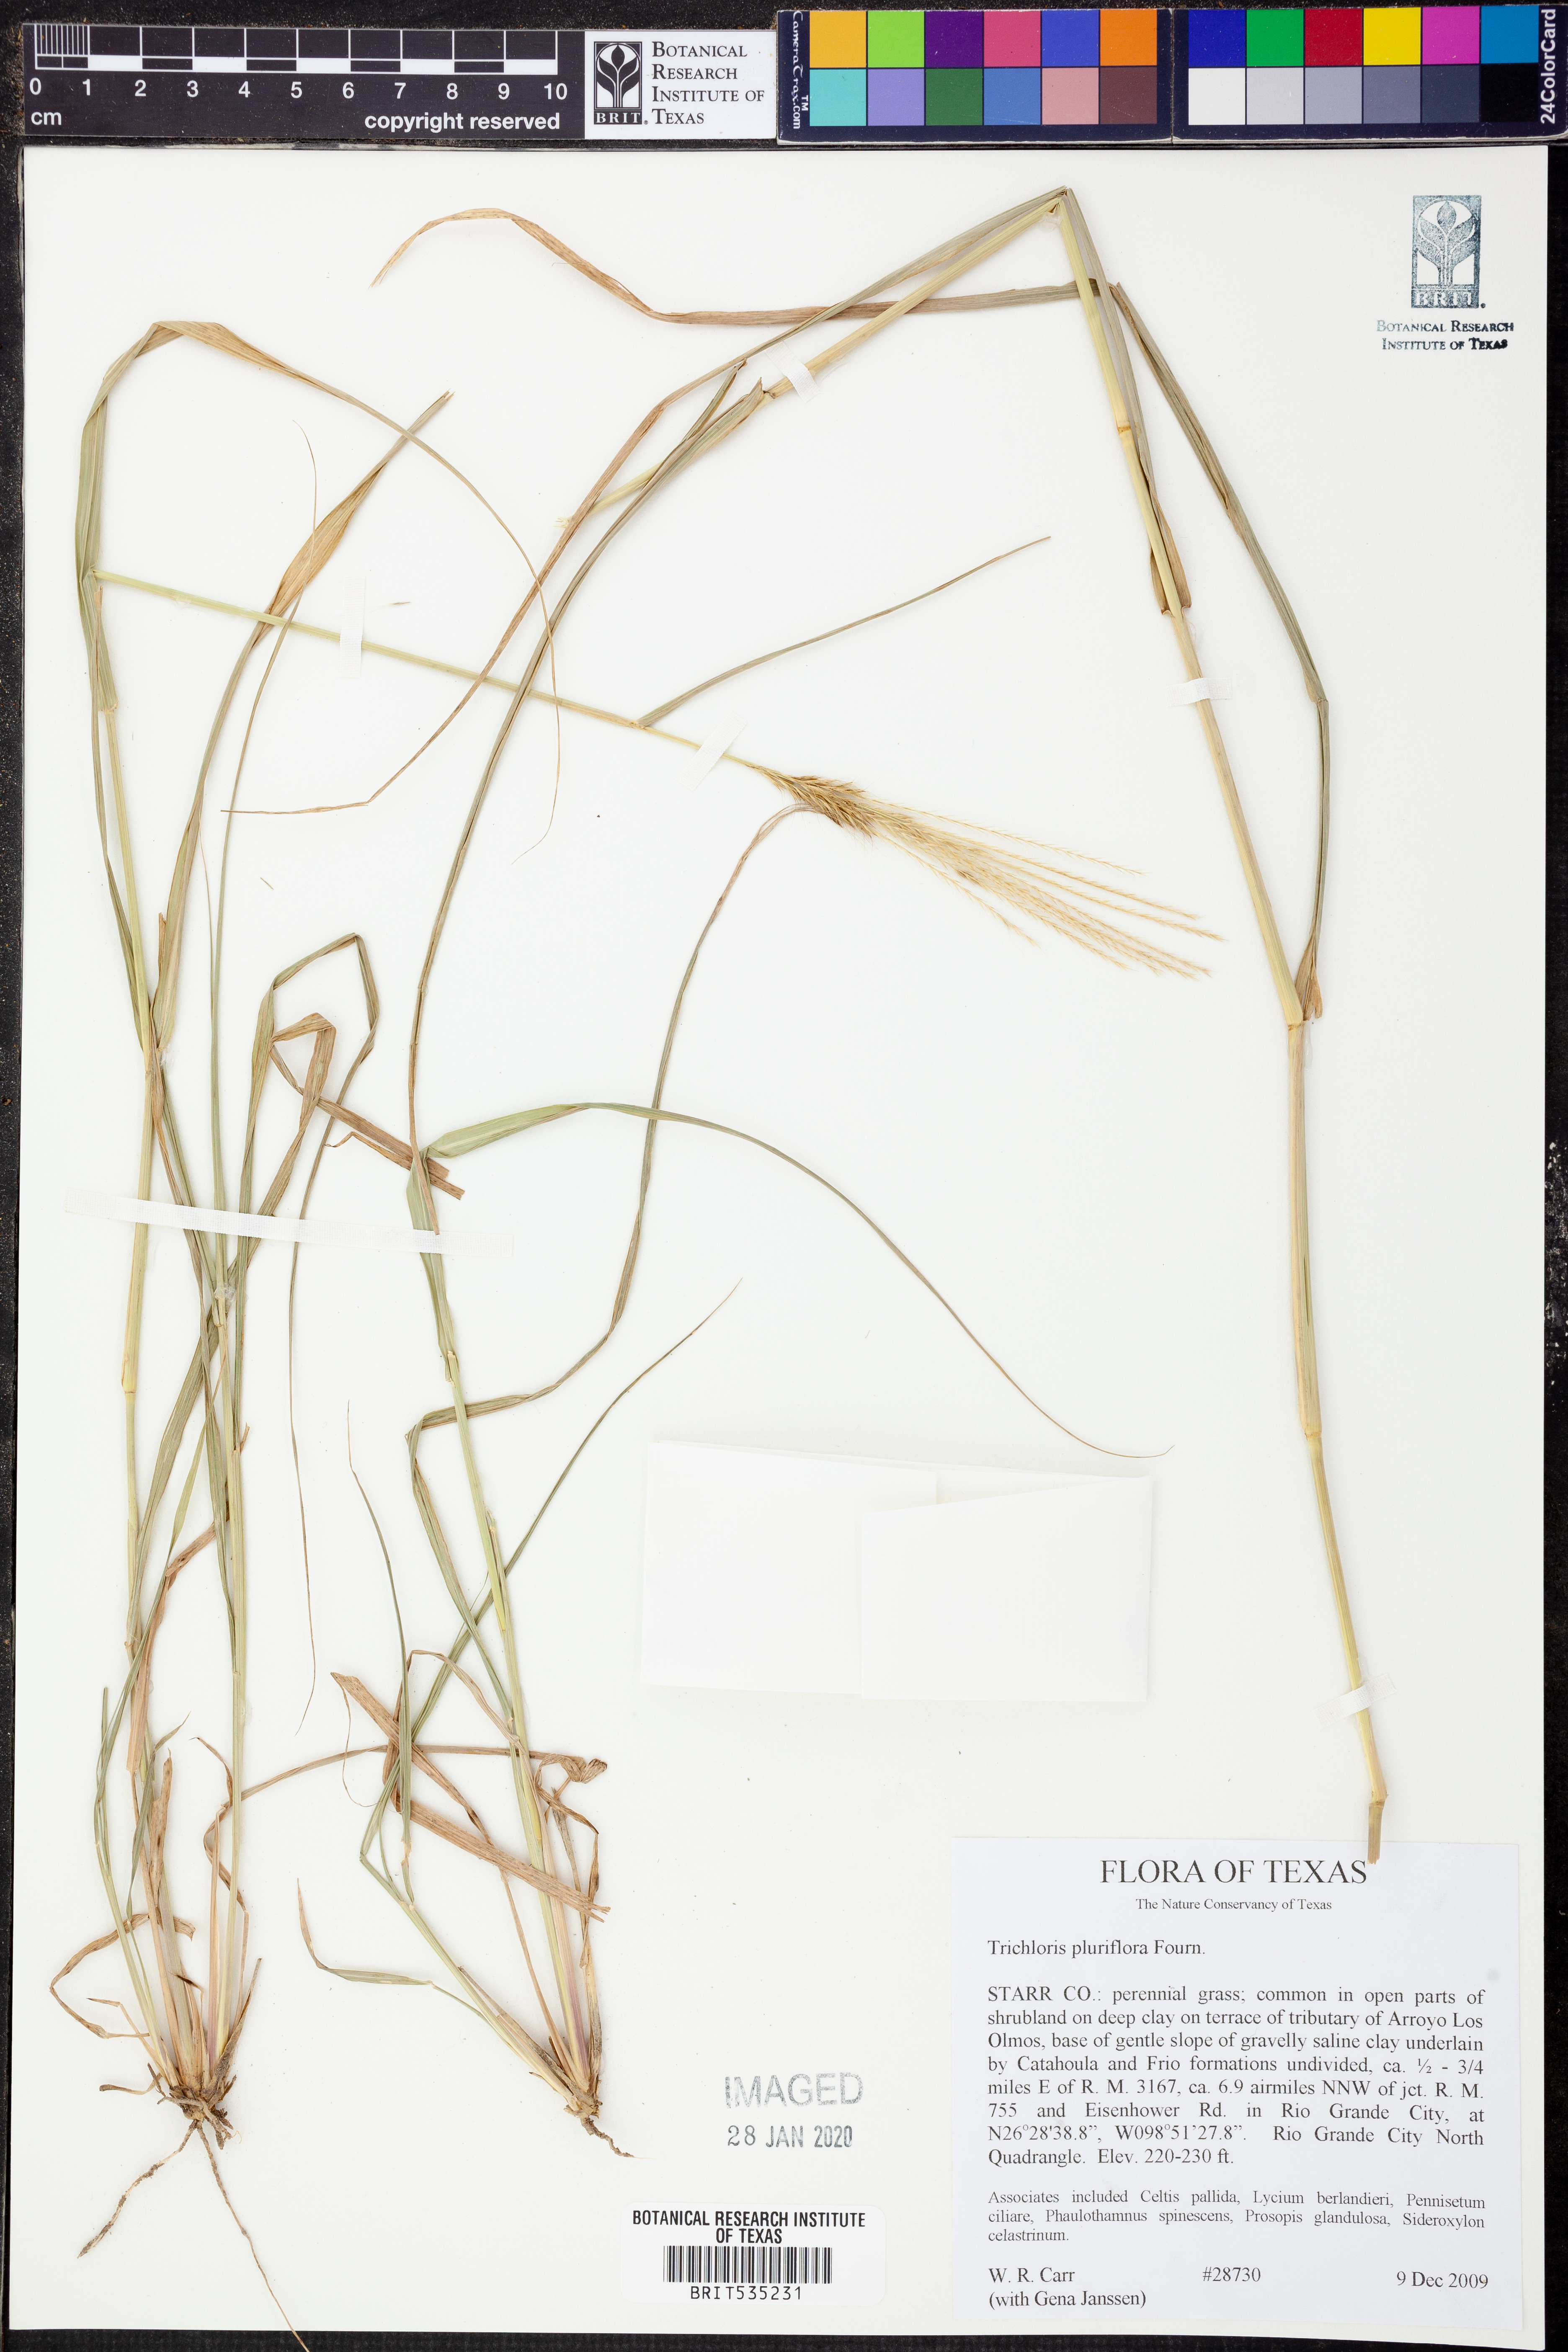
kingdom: Plantae
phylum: Tracheophyta
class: Liliopsida
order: Poales
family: Poaceae
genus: Leptochloa
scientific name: Leptochloa pluriflora
